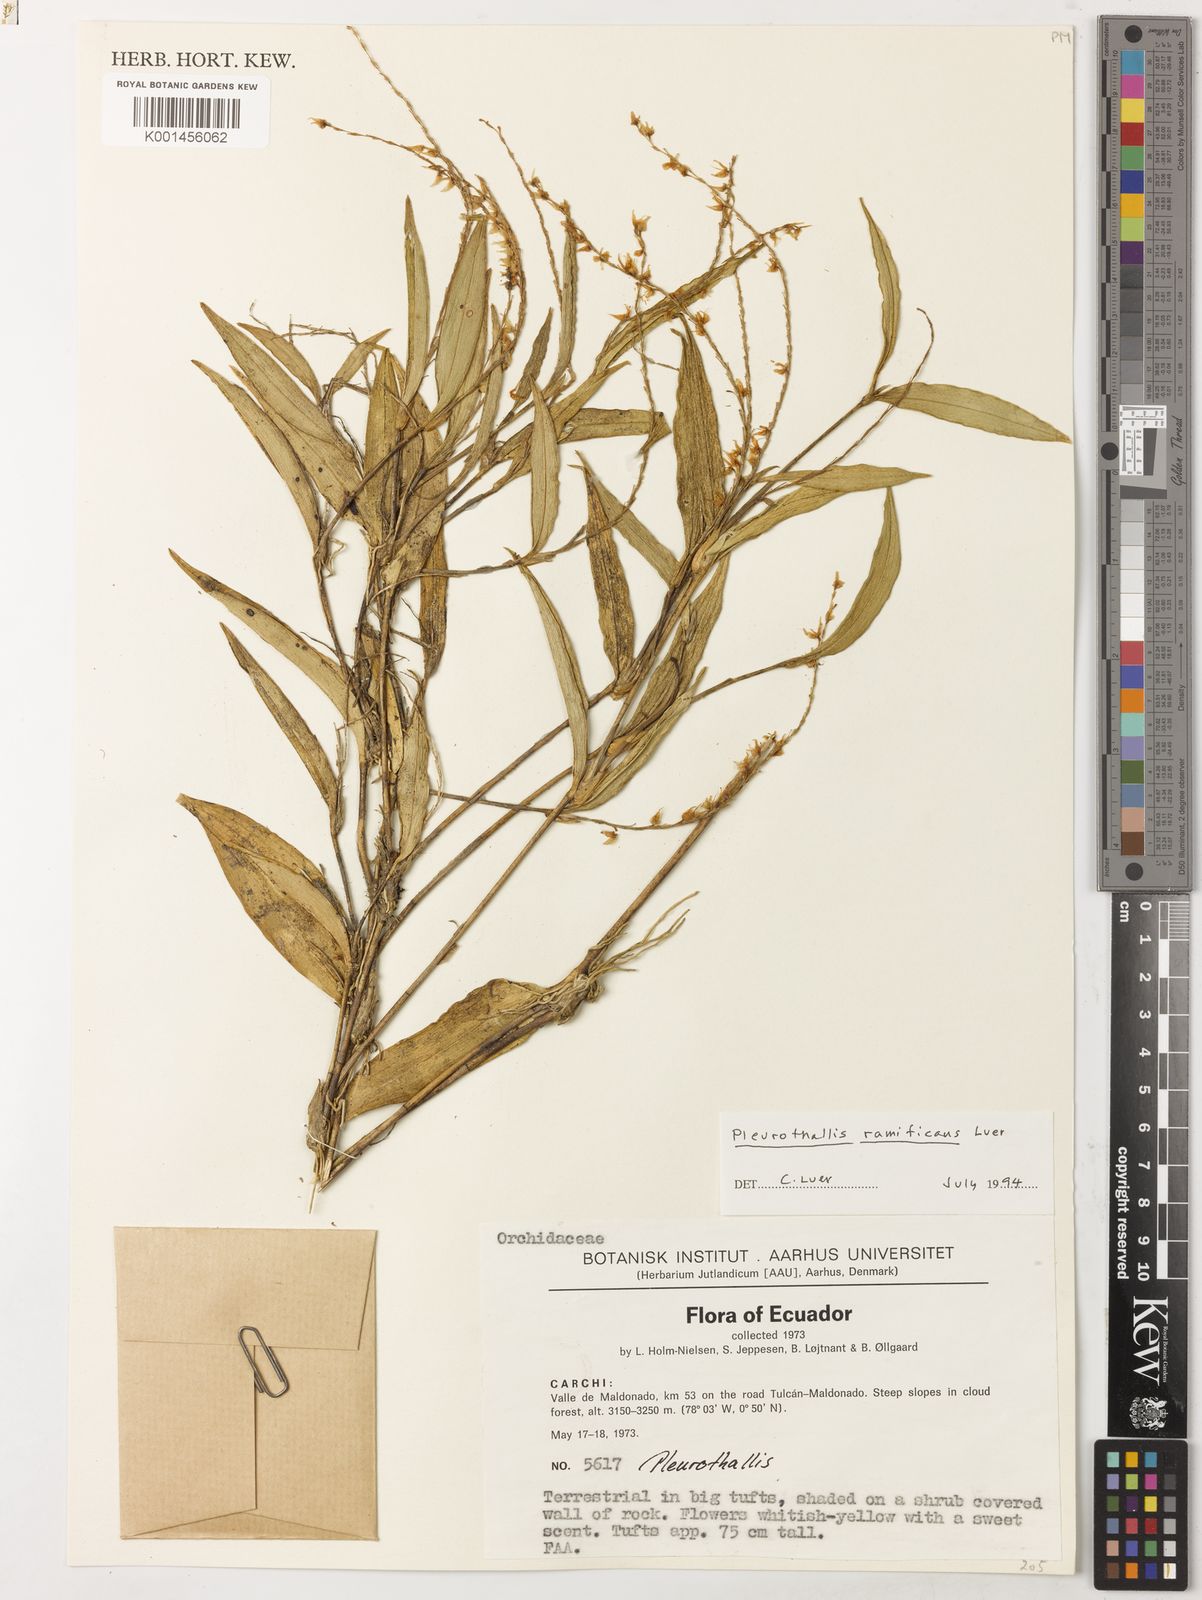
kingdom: Plantae
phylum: Tracheophyta
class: Liliopsida
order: Asparagales
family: Orchidaceae
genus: Pleurothallis
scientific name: Pleurothallis ramificans
